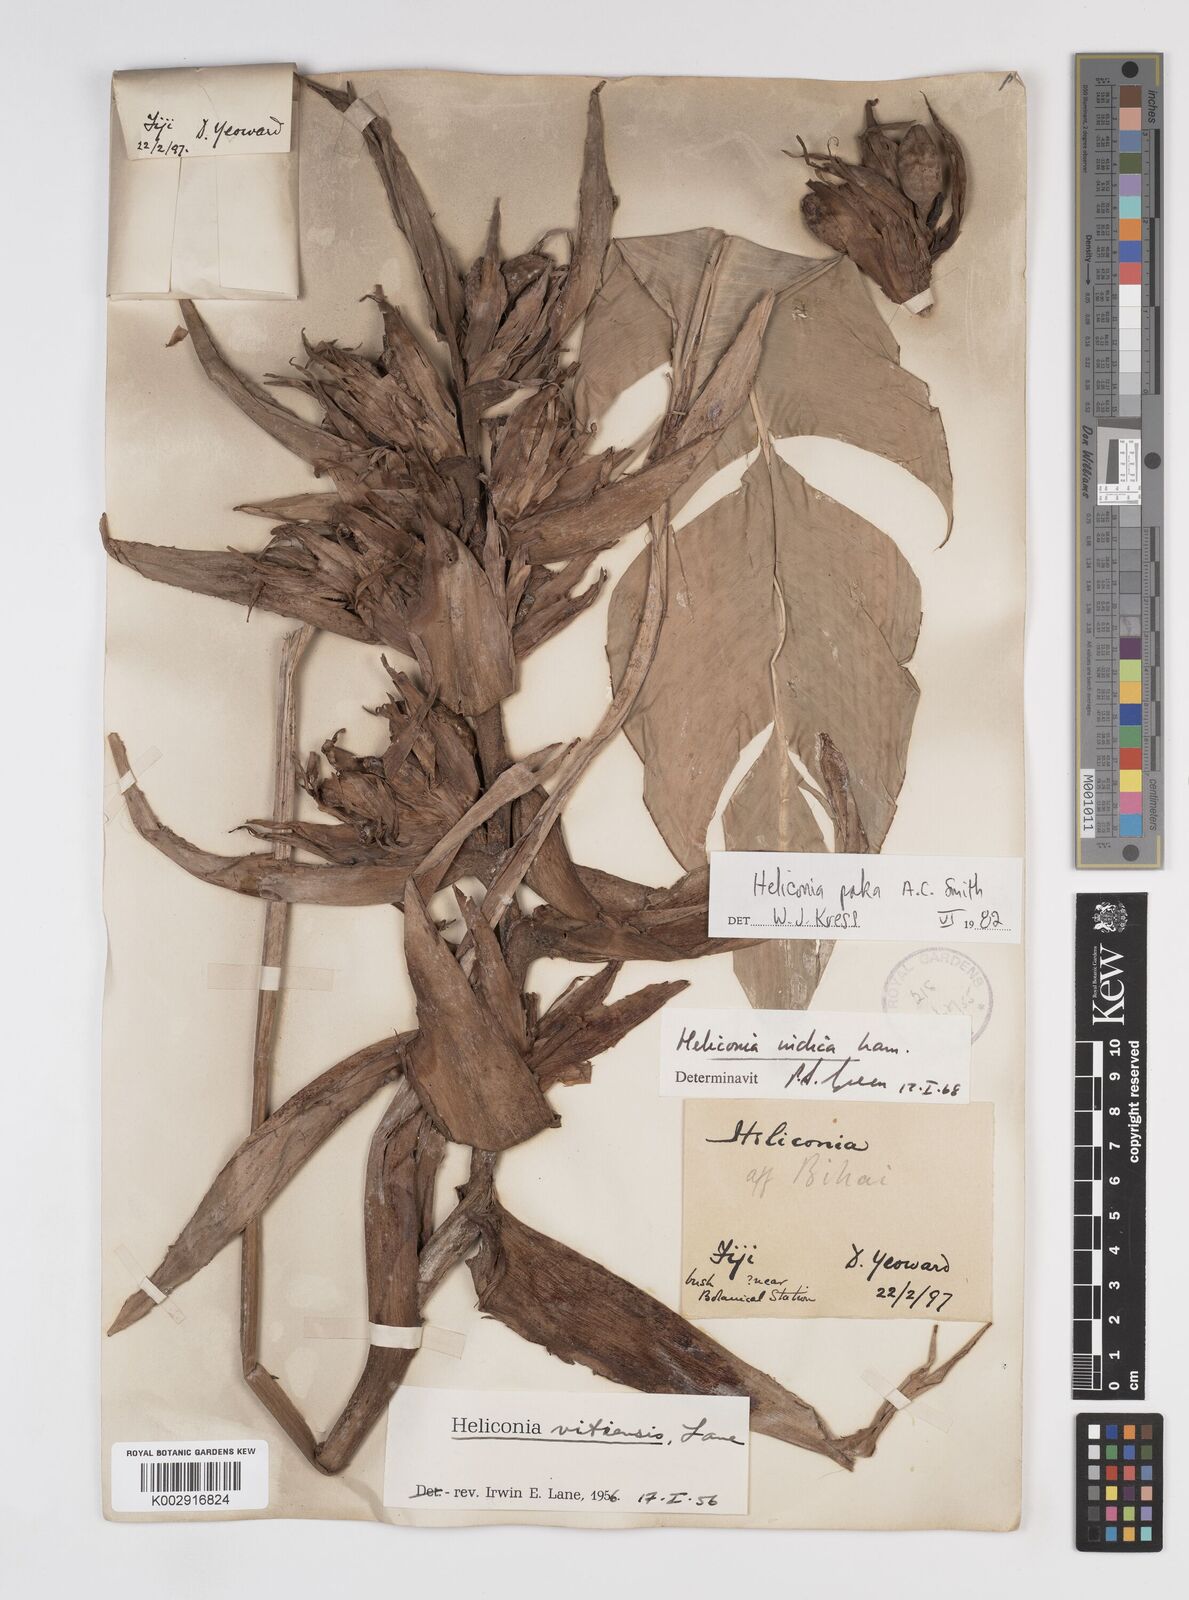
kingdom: Plantae
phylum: Tracheophyta
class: Liliopsida
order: Zingiberales
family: Heliconiaceae
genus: Heliconia
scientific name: Heliconia paka
